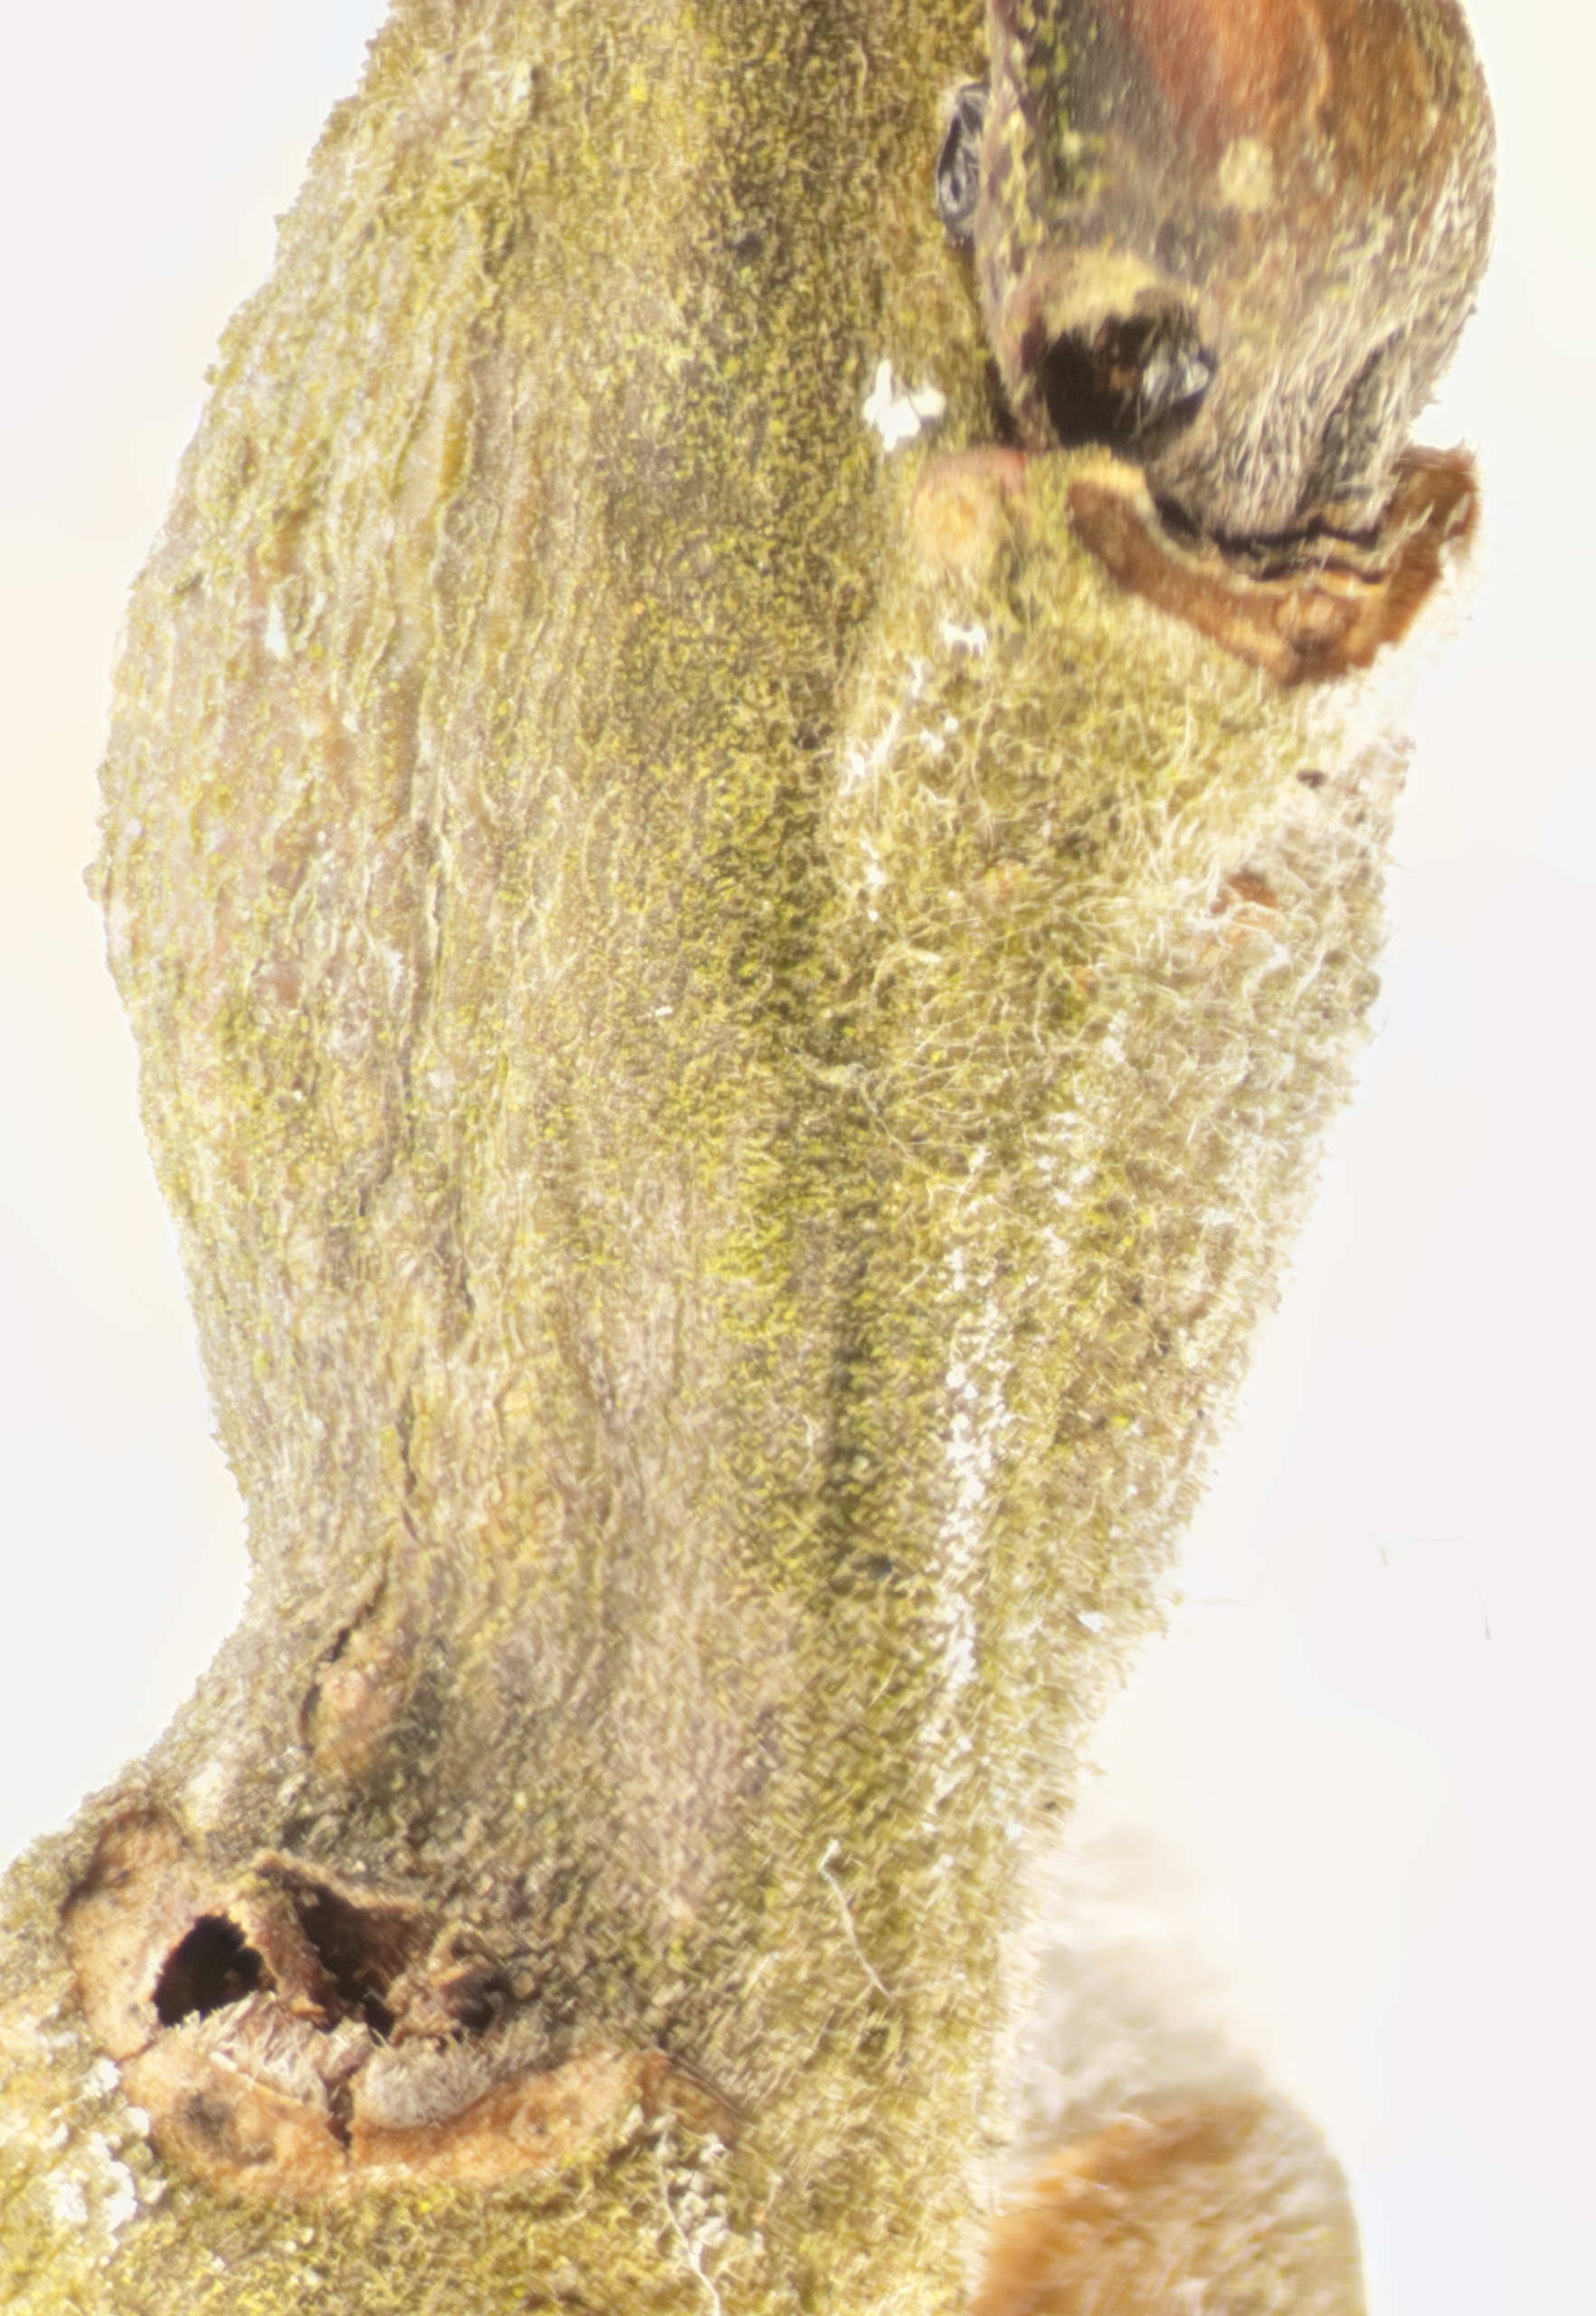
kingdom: Animalia
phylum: Arthropoda
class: Insecta
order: Hymenoptera
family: Encyrtidae
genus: Pseudencyrtus
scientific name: Pseudencyrtus misellus
